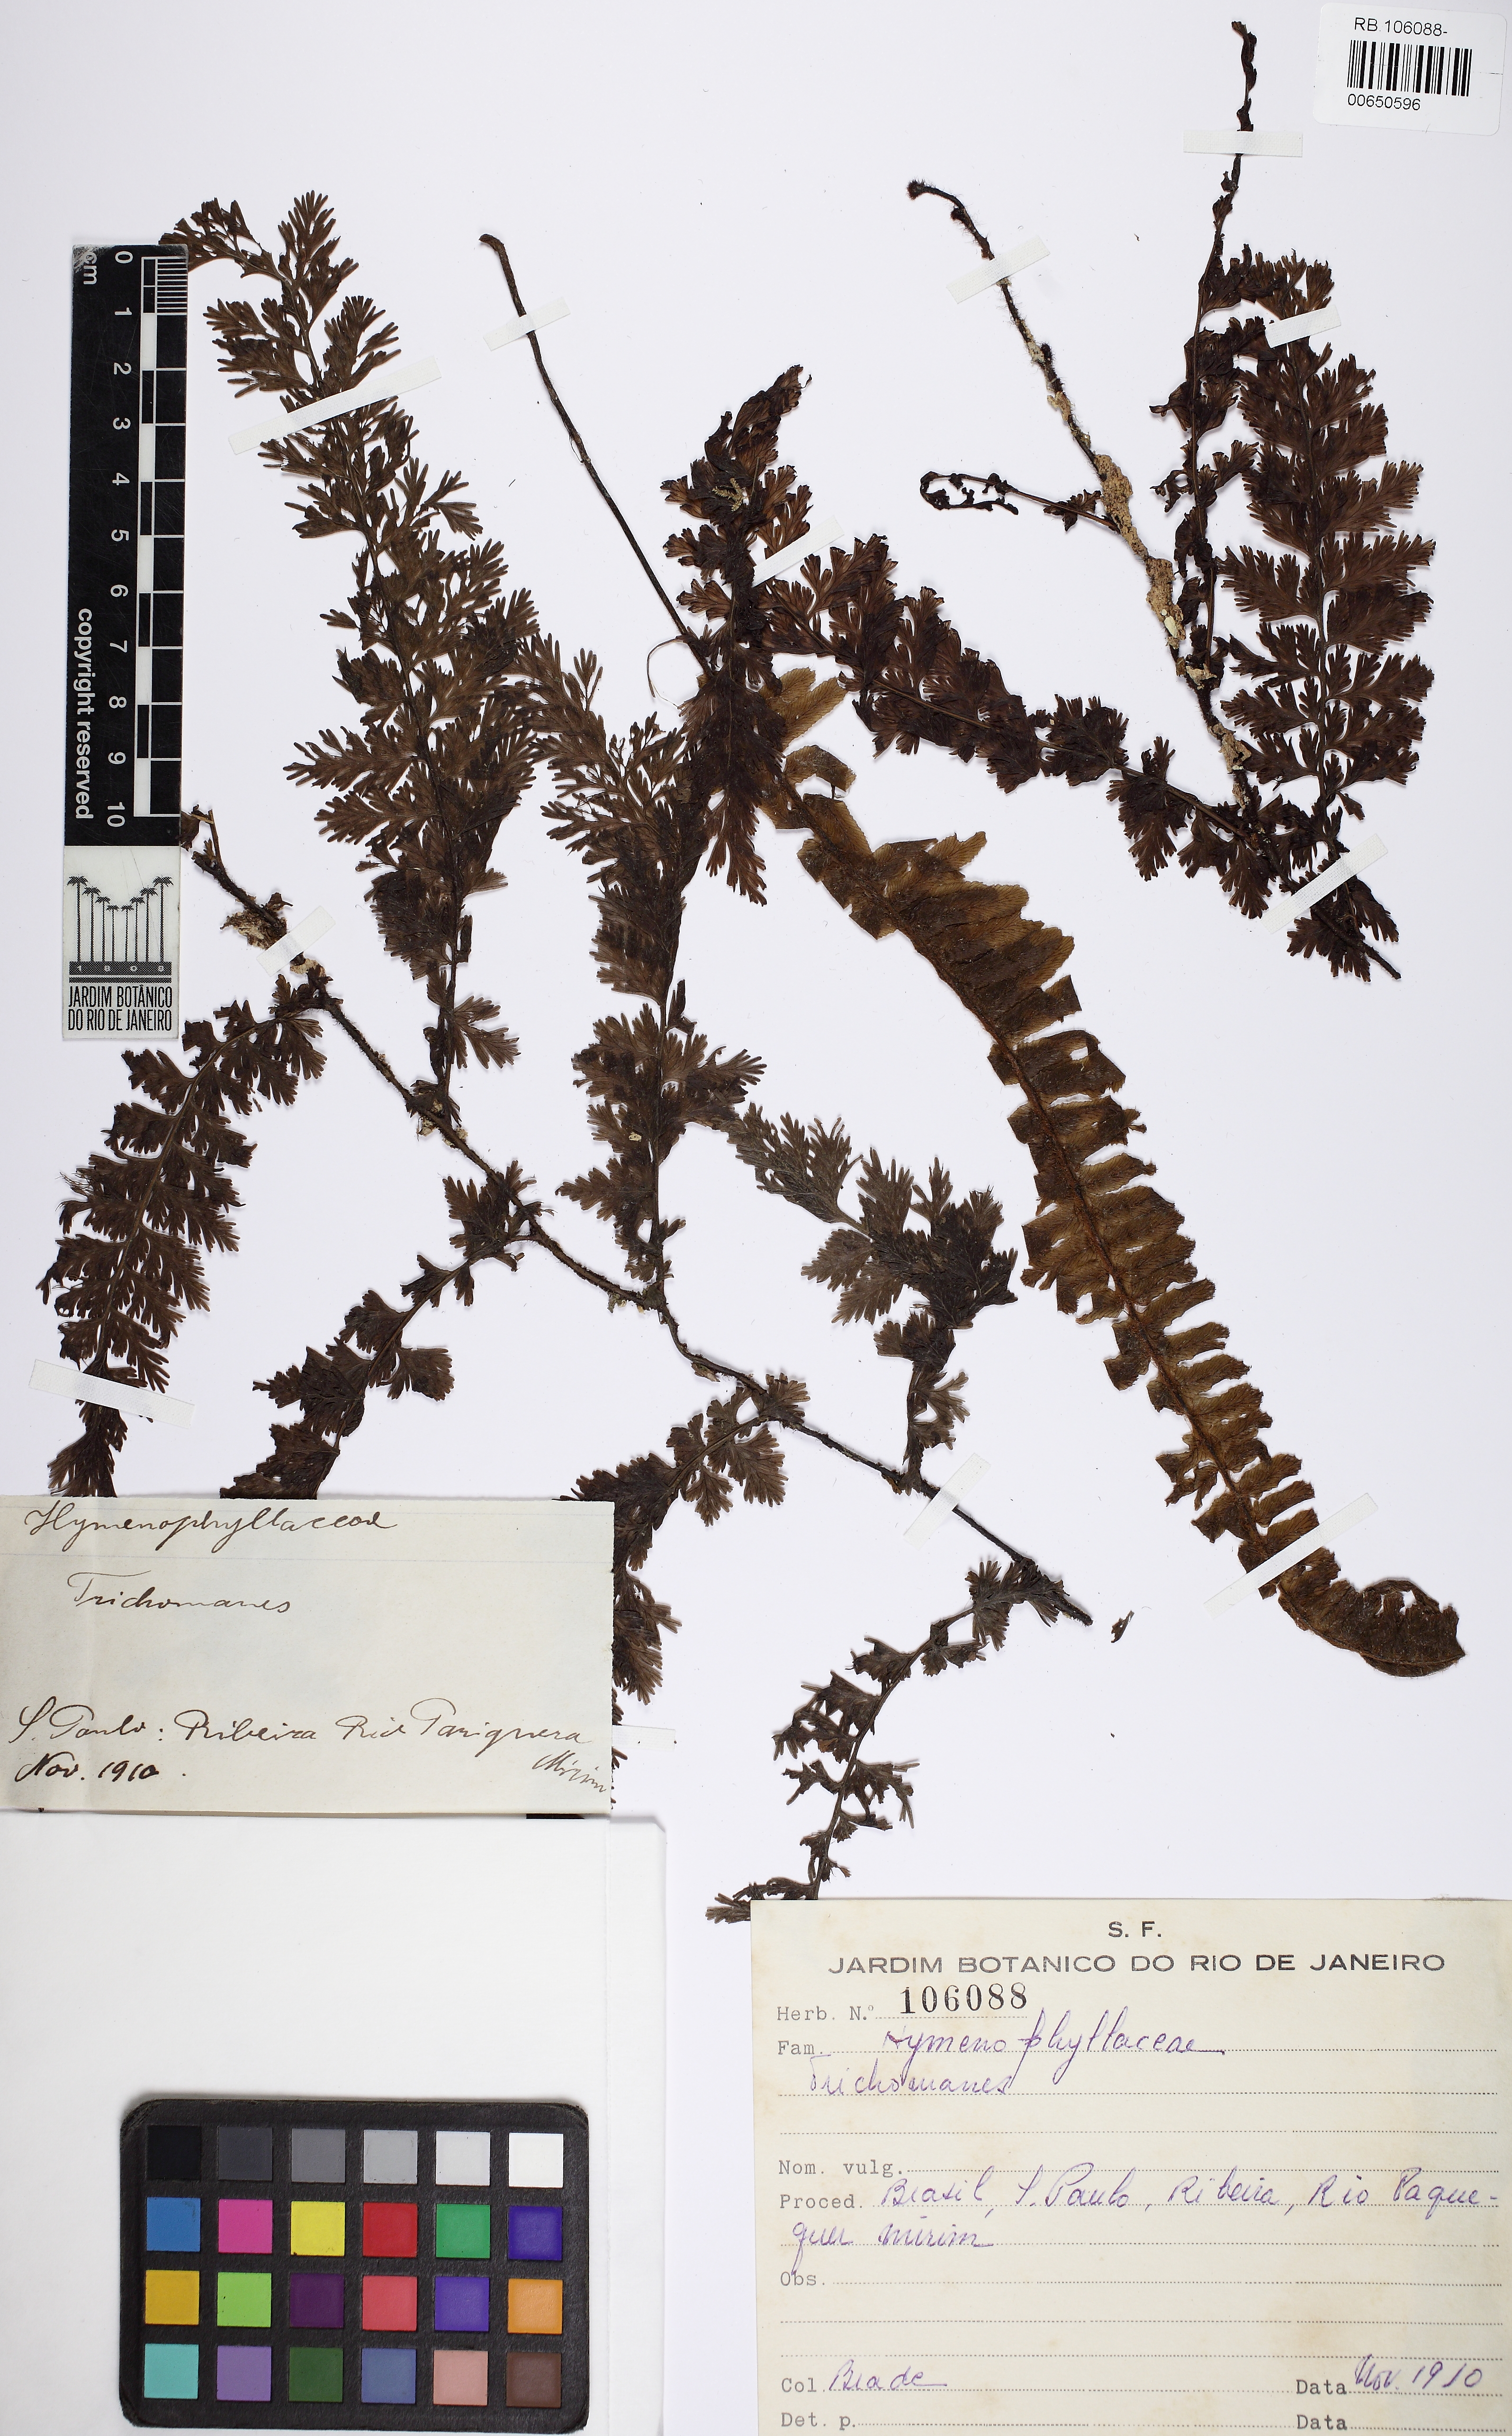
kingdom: Plantae
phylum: Tracheophyta
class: Polypodiopsida
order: Hymenophyllales
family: Hymenophyllaceae
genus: Vandenboschia
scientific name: Vandenboschia radicans
